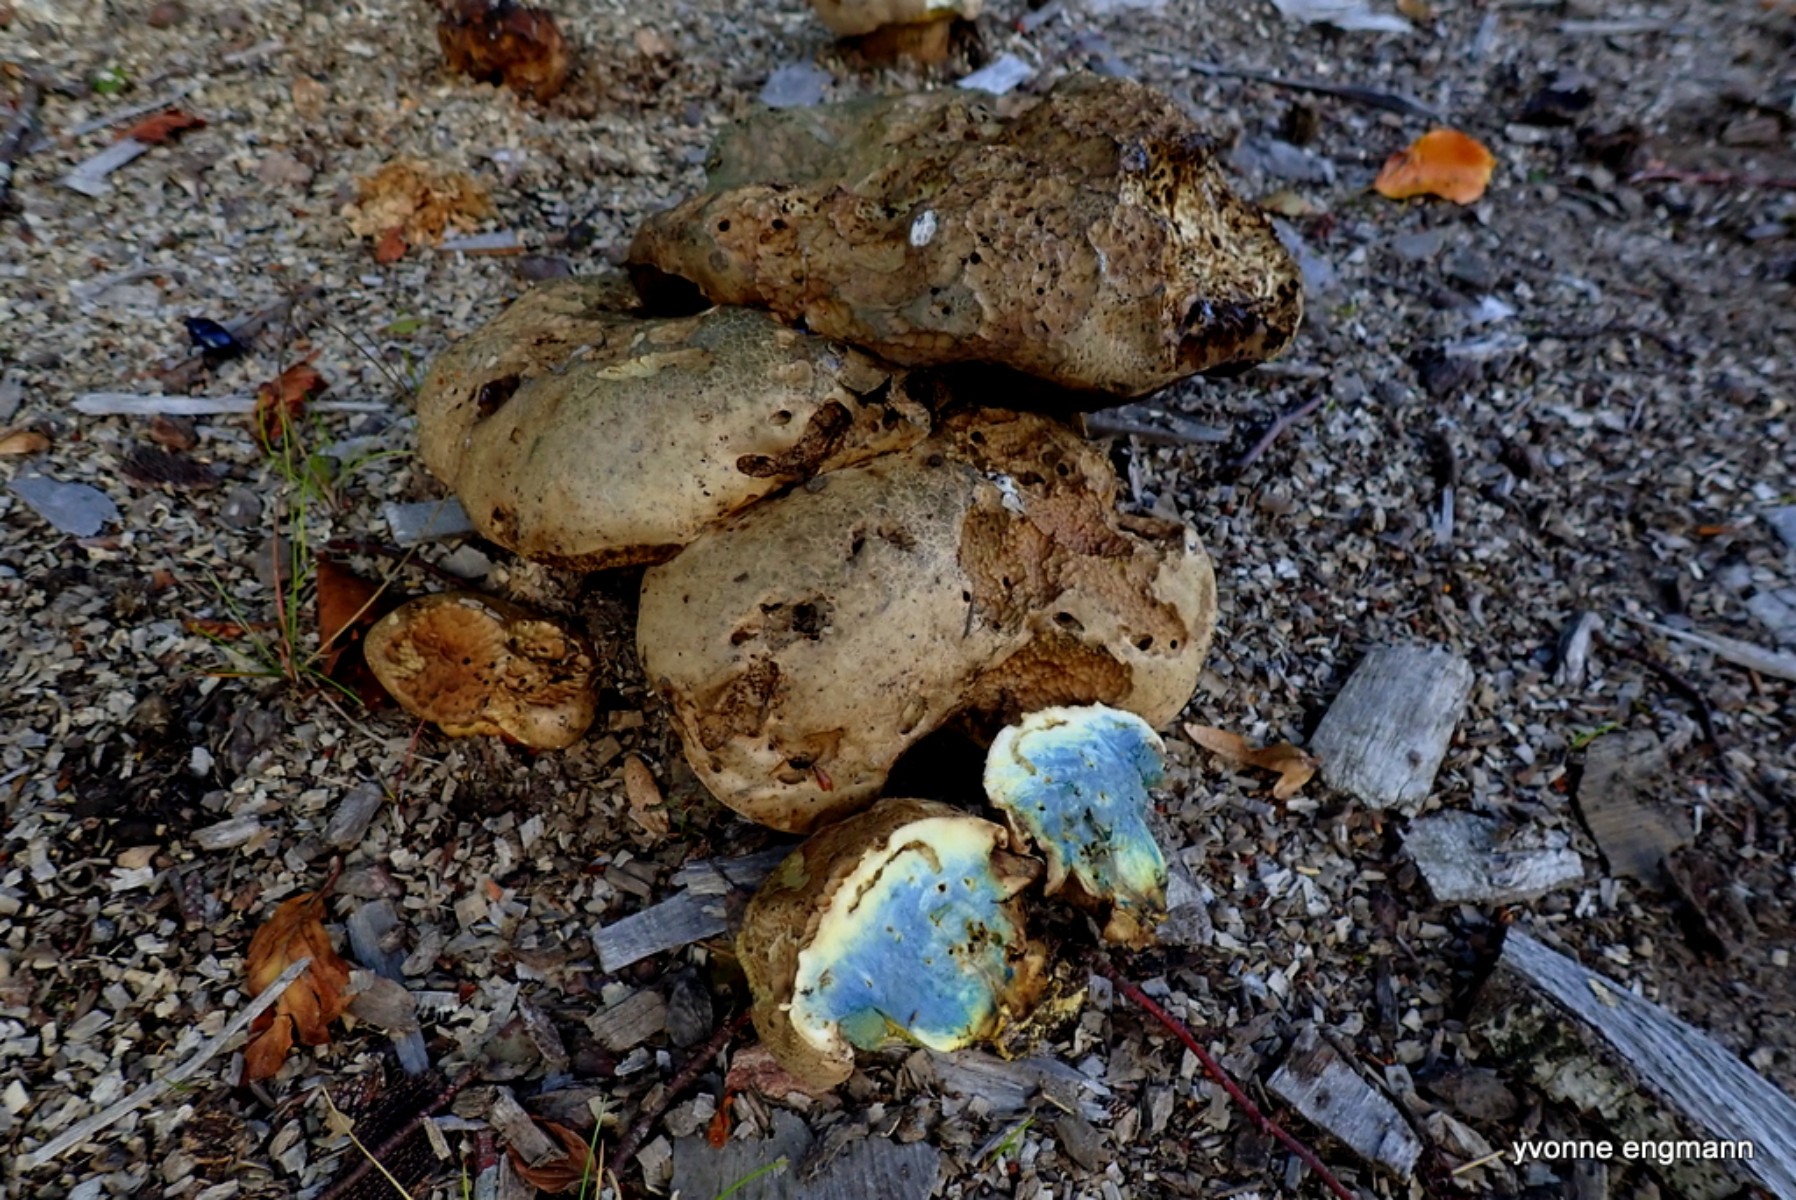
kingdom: Fungi
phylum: Basidiomycota
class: Agaricomycetes
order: Boletales
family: Boletaceae
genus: Caloboletus
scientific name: Caloboletus radicans
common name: rod-rørhat
